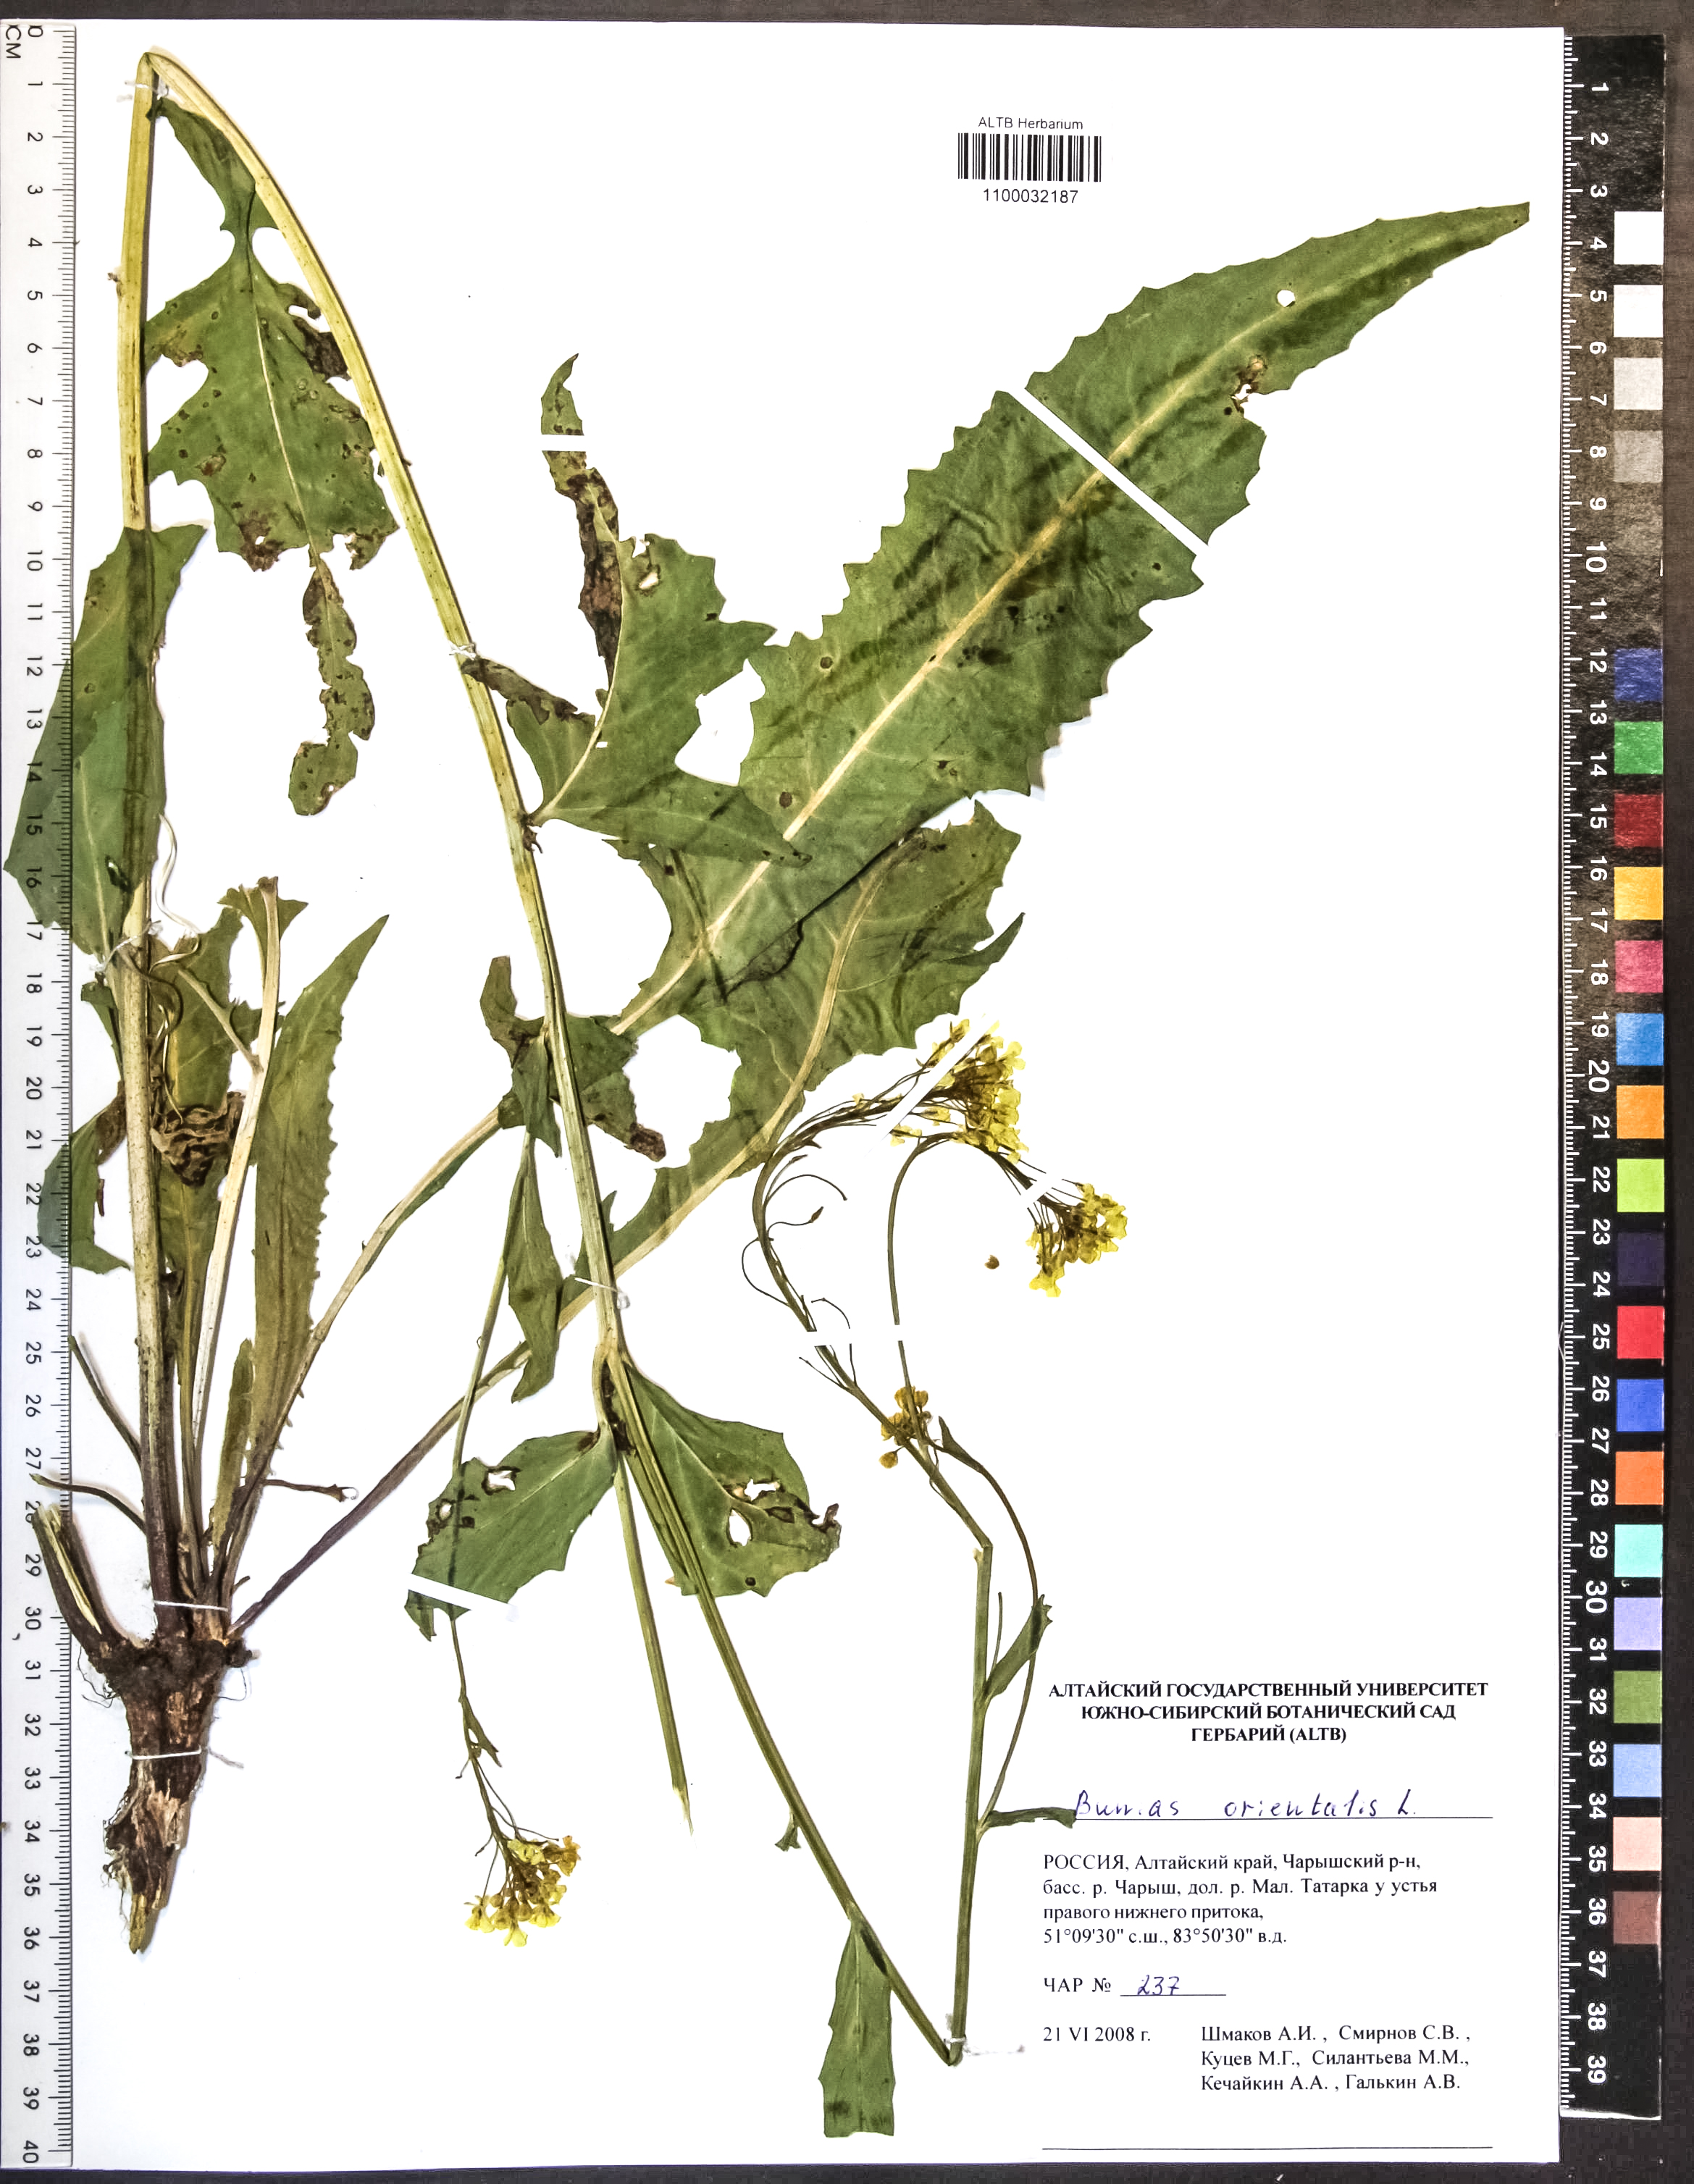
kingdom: Plantae
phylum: Tracheophyta
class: Magnoliopsida
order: Brassicales
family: Brassicaceae
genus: Bunias
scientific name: Bunias orientalis
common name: Warty-cabbage
